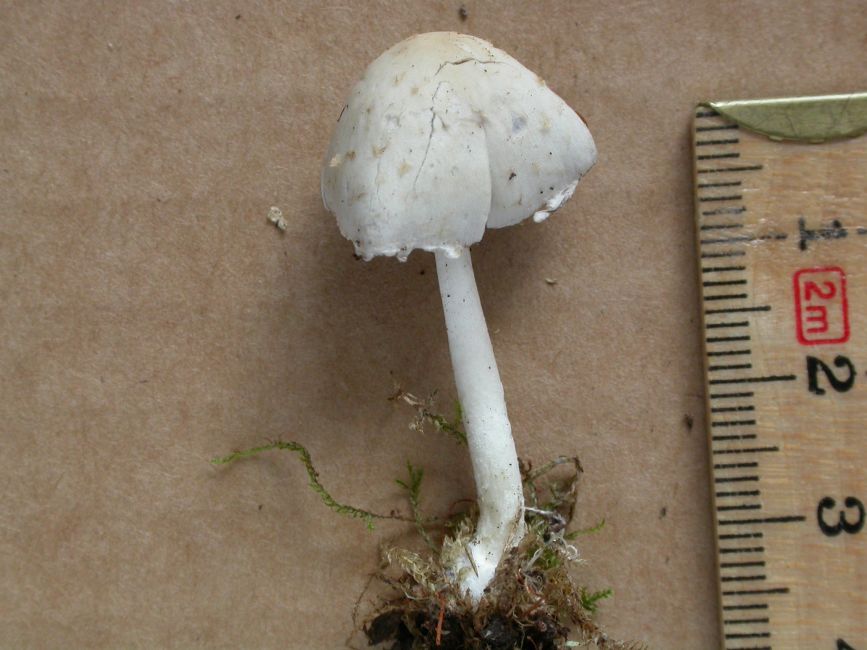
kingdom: Fungi
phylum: Basidiomycota
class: Agaricomycetes
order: Agaricales
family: Psathyrellaceae
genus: Candolleomyces
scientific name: Candolleomyces candolleanus
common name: Candolles mørkhat
